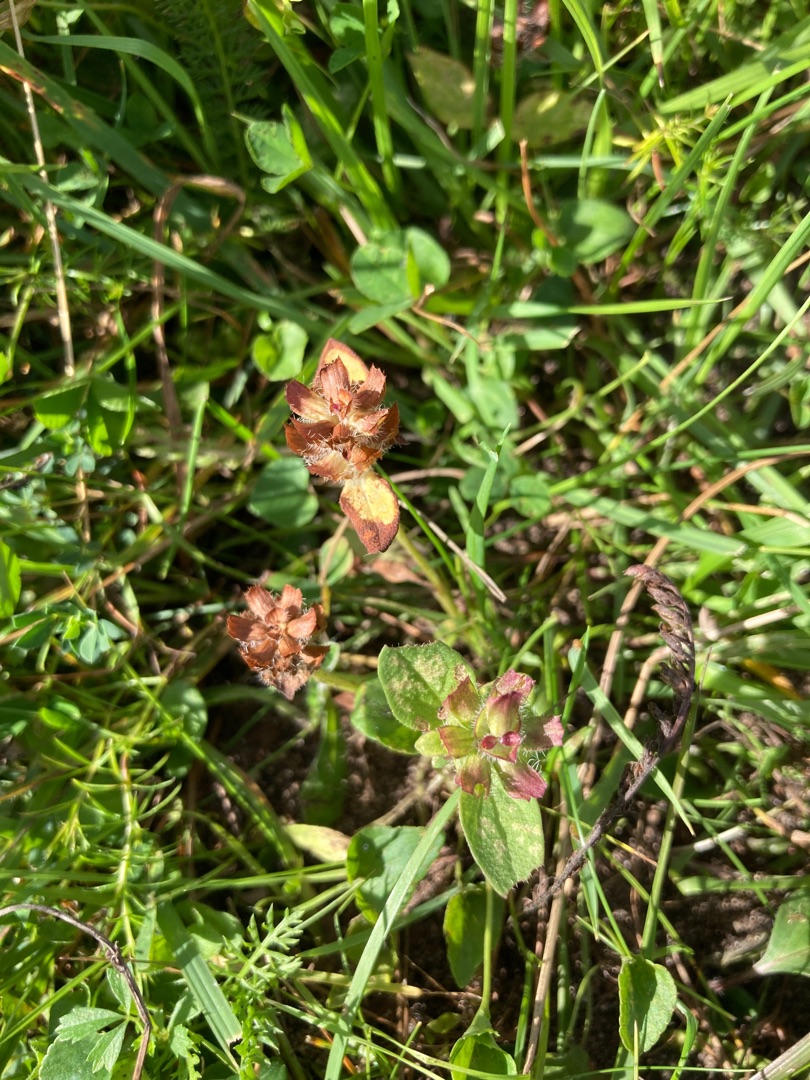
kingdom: Plantae
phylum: Tracheophyta
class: Magnoliopsida
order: Lamiales
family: Lamiaceae
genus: Prunella
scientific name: Prunella vulgaris
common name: Almindelig brunelle
